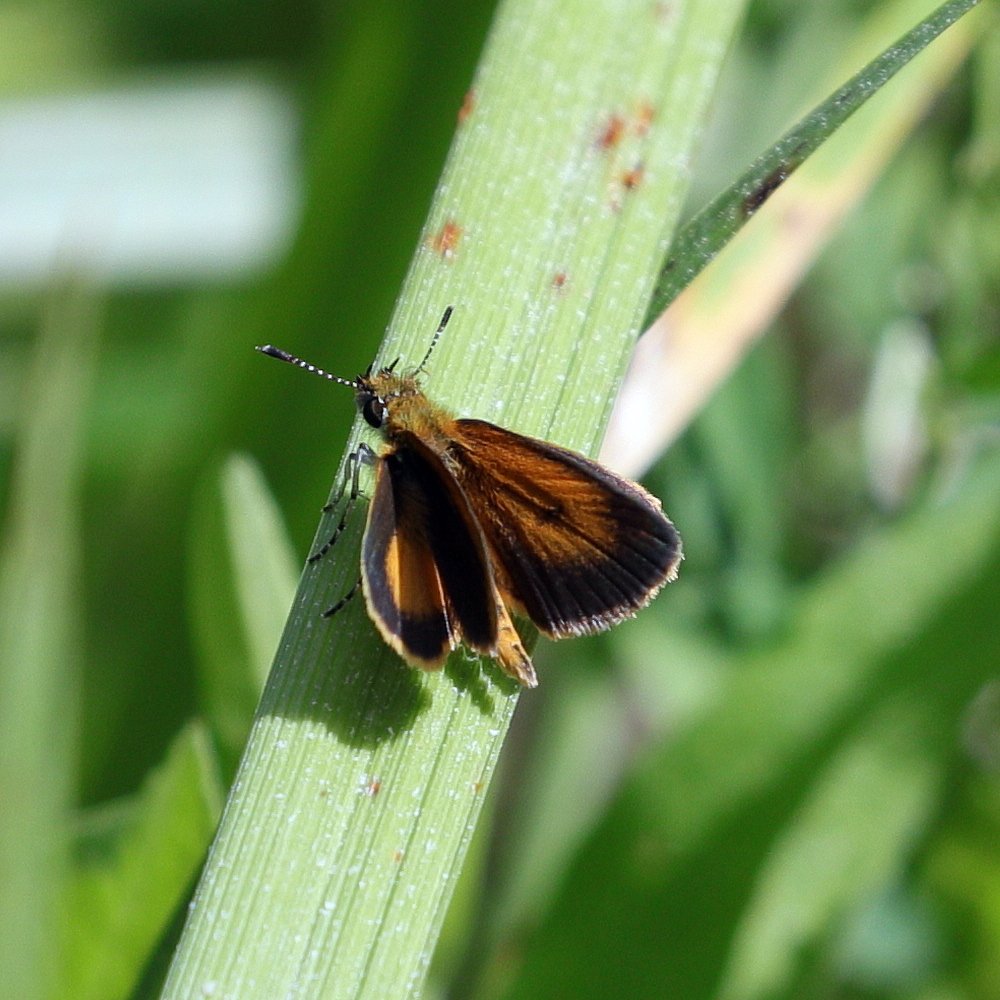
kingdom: Animalia
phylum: Arthropoda
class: Insecta
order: Lepidoptera
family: Hesperiidae
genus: Ancyloxypha
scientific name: Ancyloxypha numitor
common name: Least Skipper
